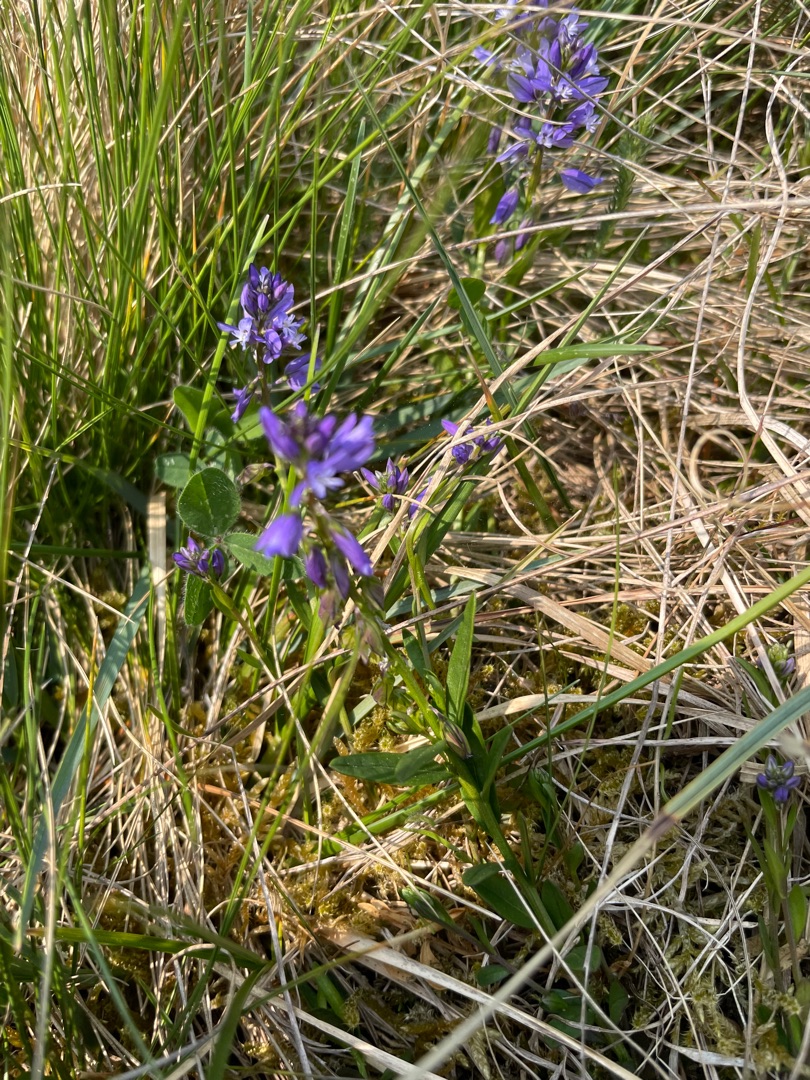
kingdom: Plantae
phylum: Tracheophyta
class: Magnoliopsida
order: Fabales
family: Polygalaceae
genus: Polygala
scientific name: Polygala vulgaris
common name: Almindelig mælkeurt
